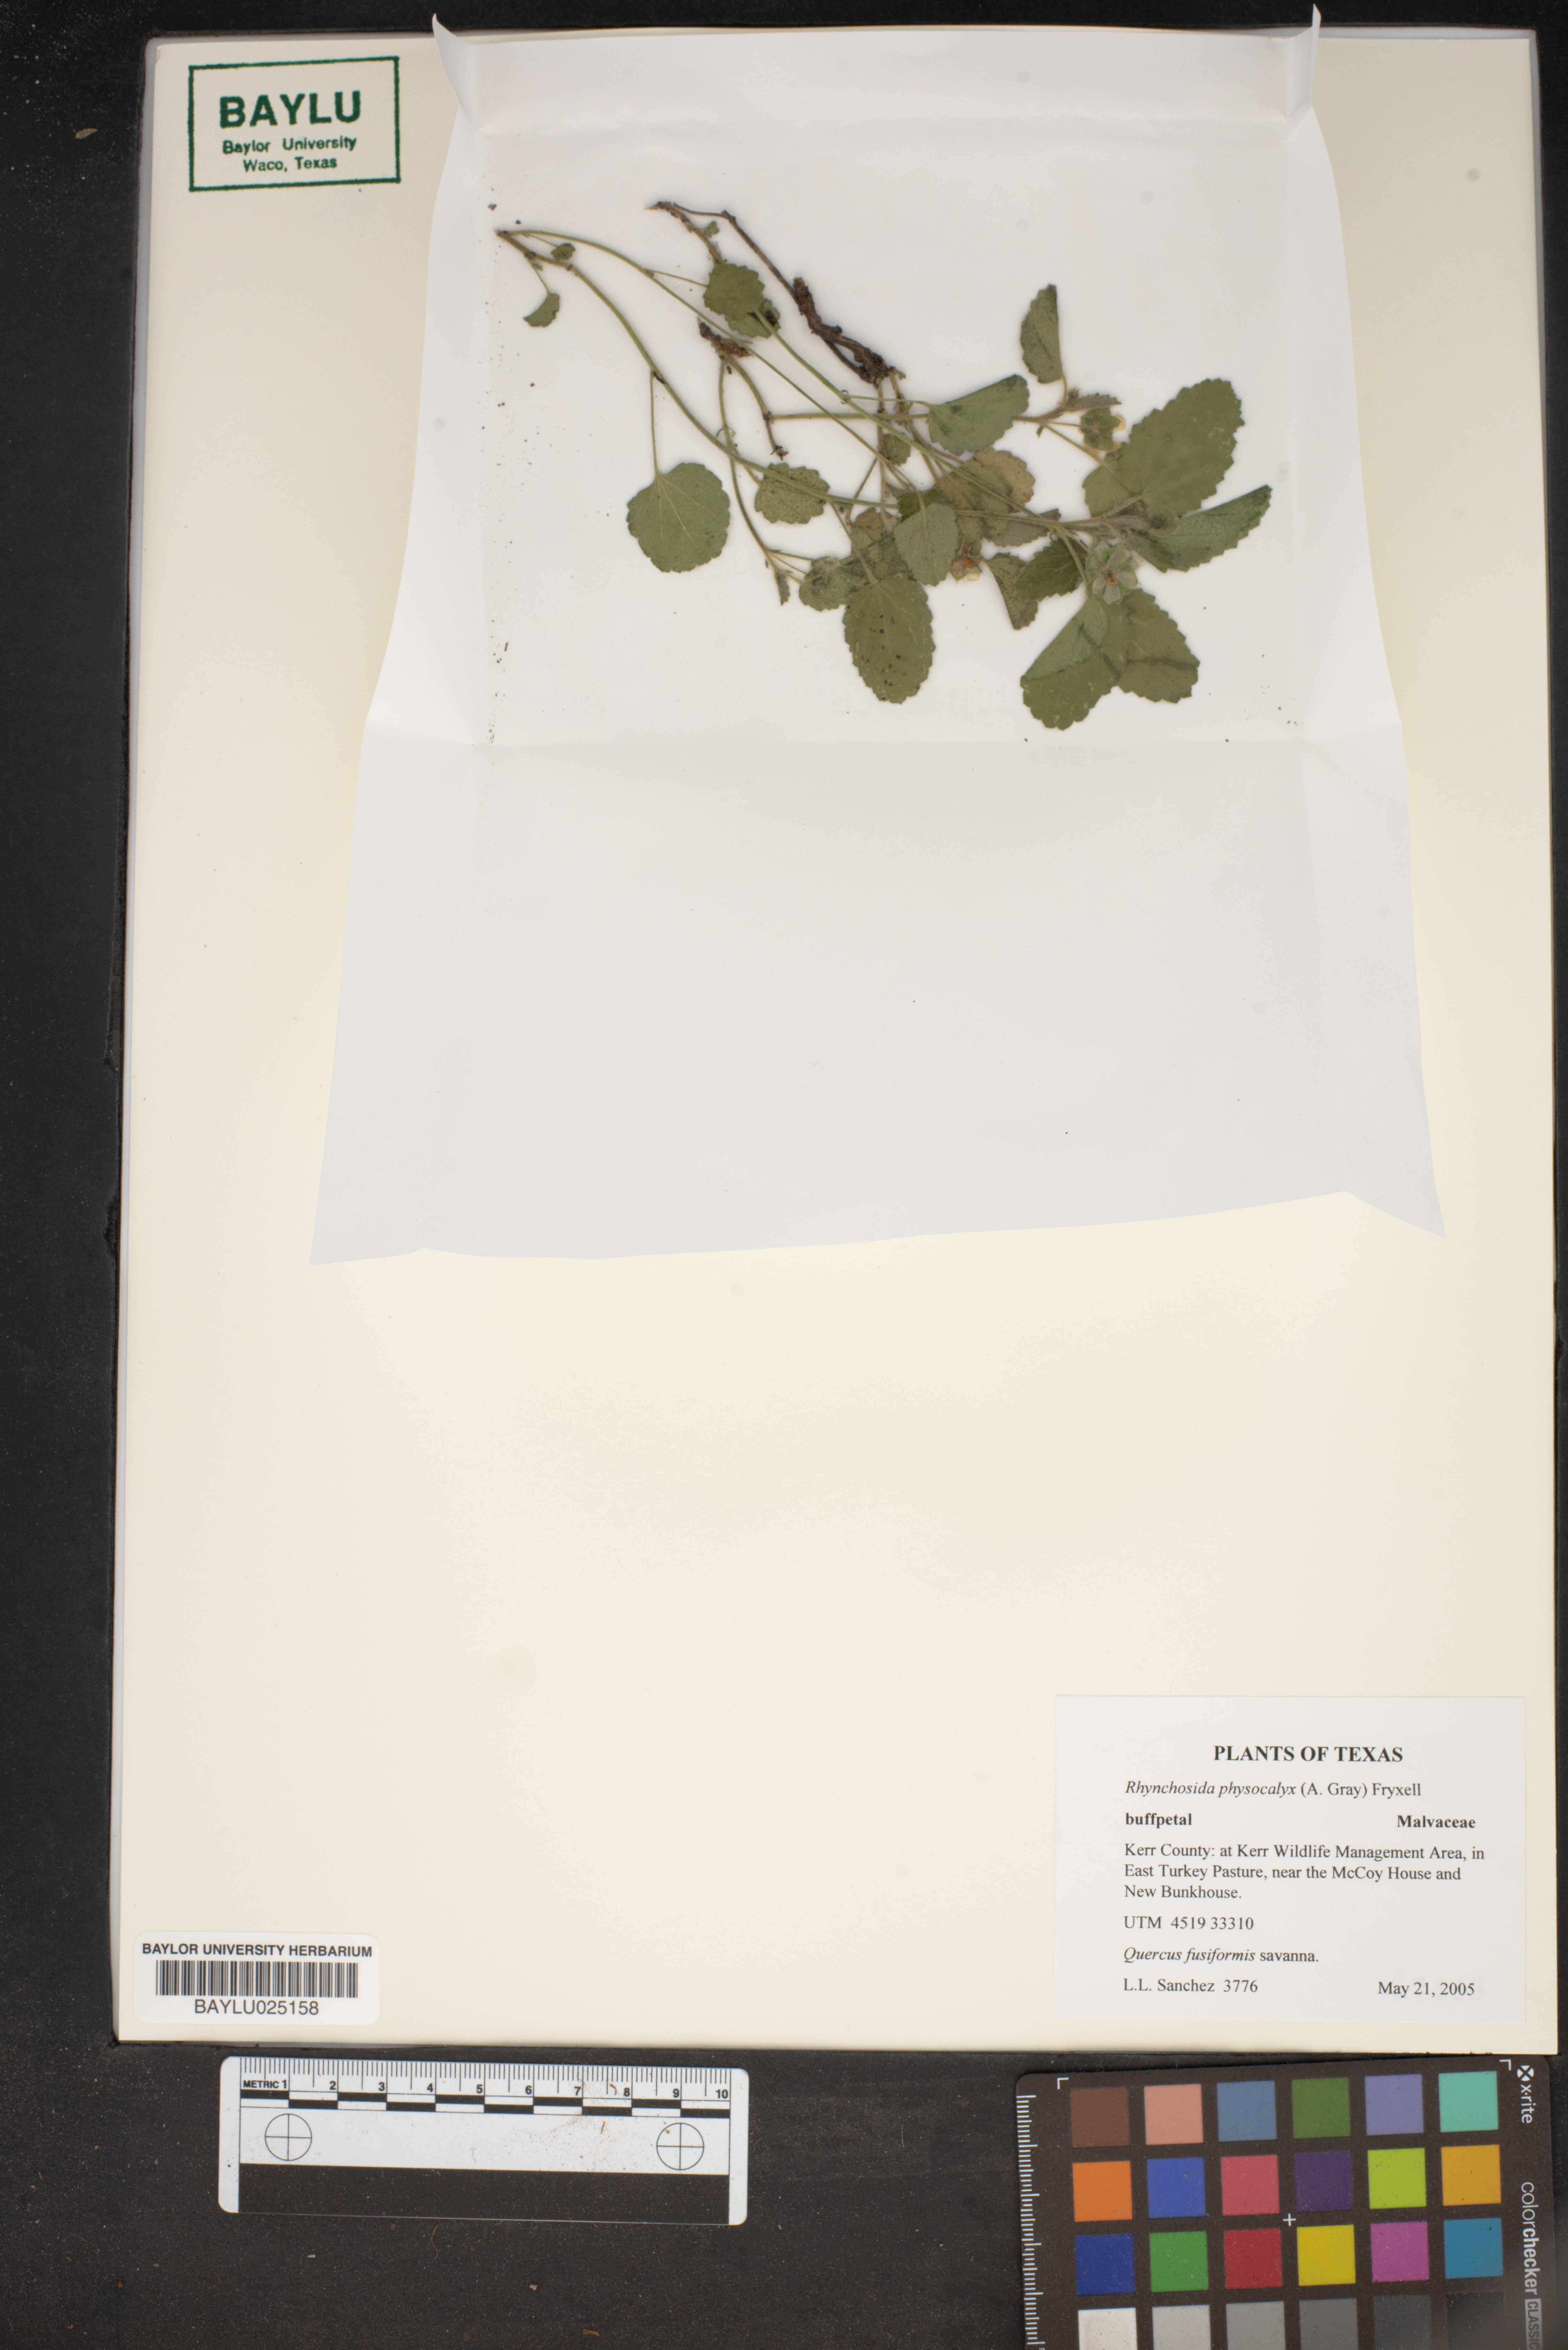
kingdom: Plantae
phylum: Tracheophyta
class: Magnoliopsida
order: Malvales
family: Malvaceae
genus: Rhynchosida
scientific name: Rhynchosida physocalyx
